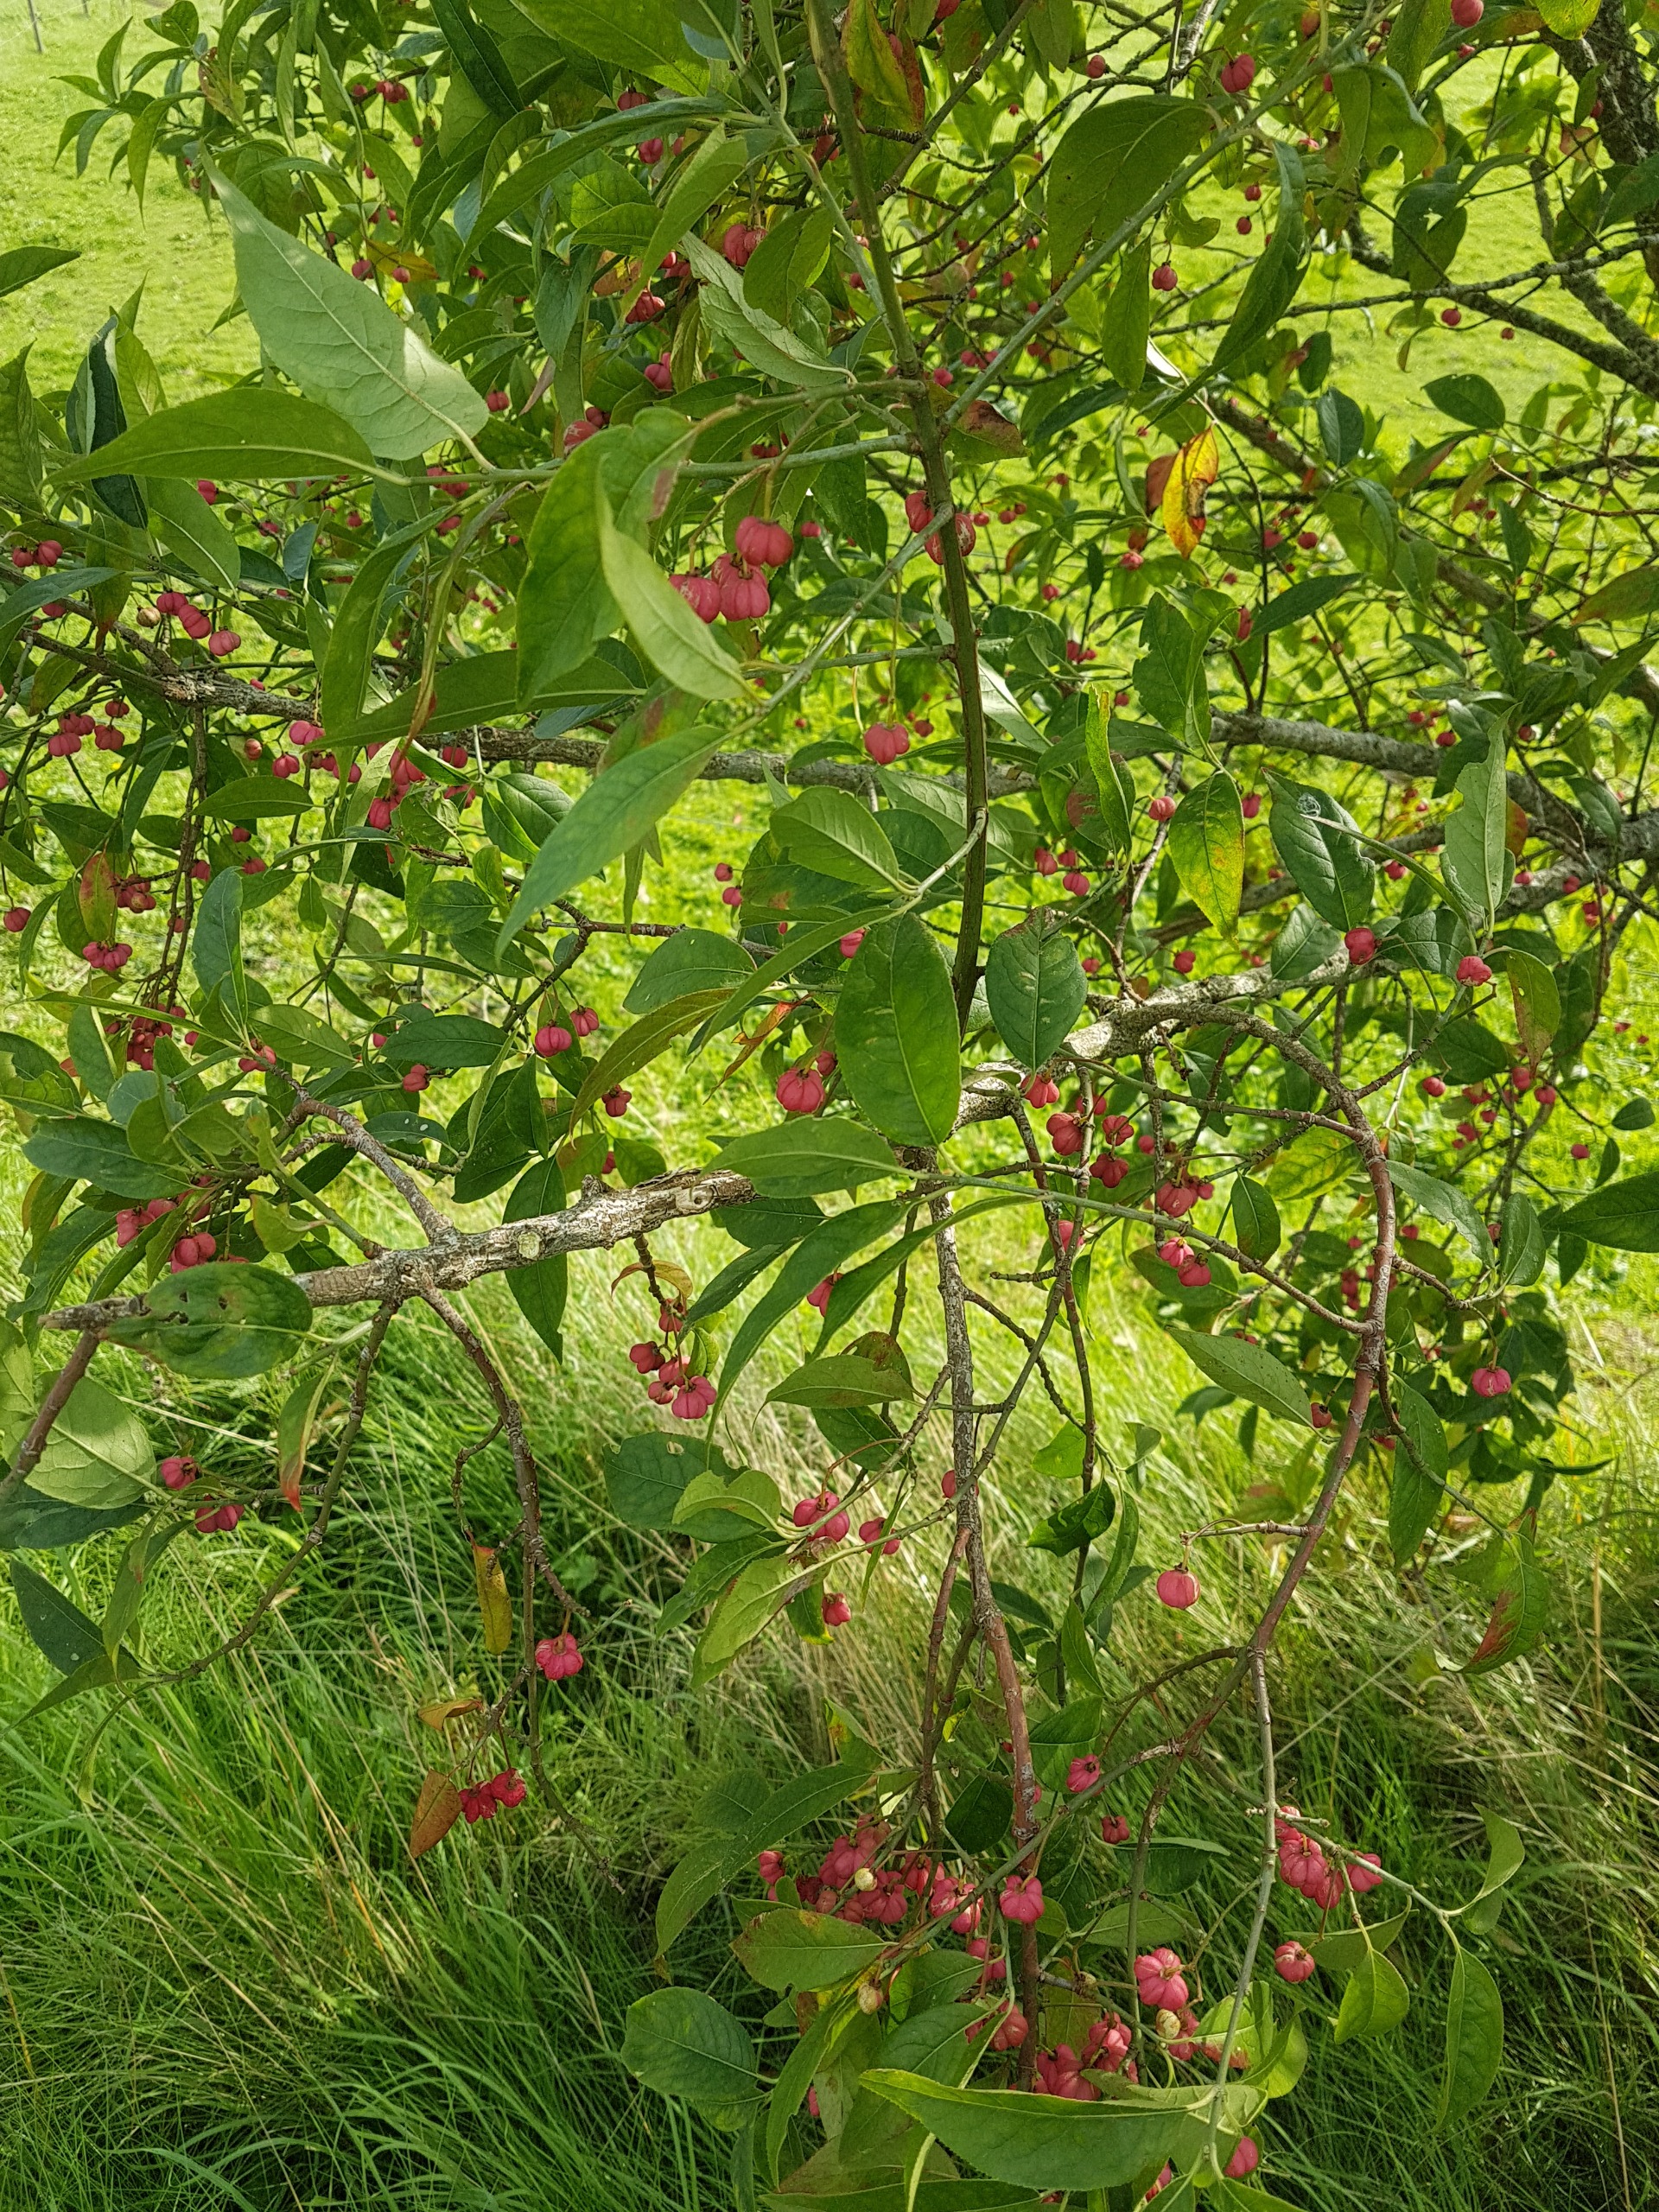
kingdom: Plantae
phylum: Tracheophyta
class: Magnoliopsida
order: Celastrales
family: Celastraceae
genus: Euonymus
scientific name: Euonymus europaeus
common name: Benved
